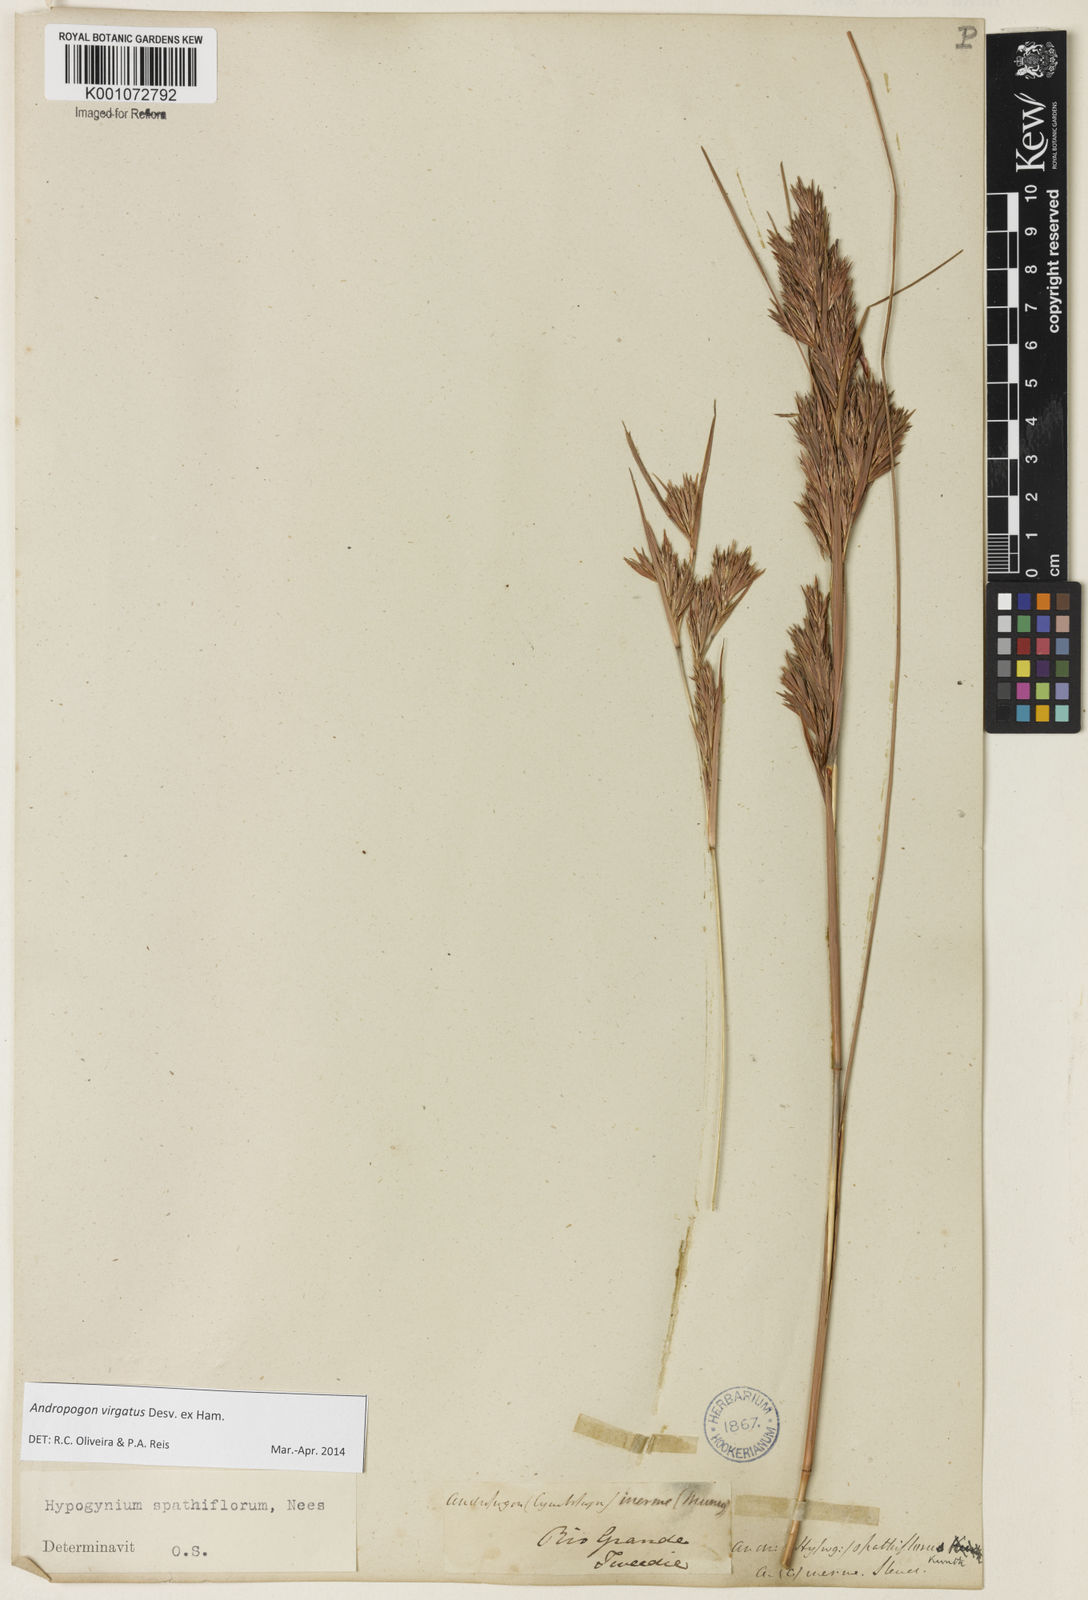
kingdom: Plantae
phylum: Tracheophyta
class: Liliopsida
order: Poales
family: Poaceae
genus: Andropogon
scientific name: Andropogon virgatus
